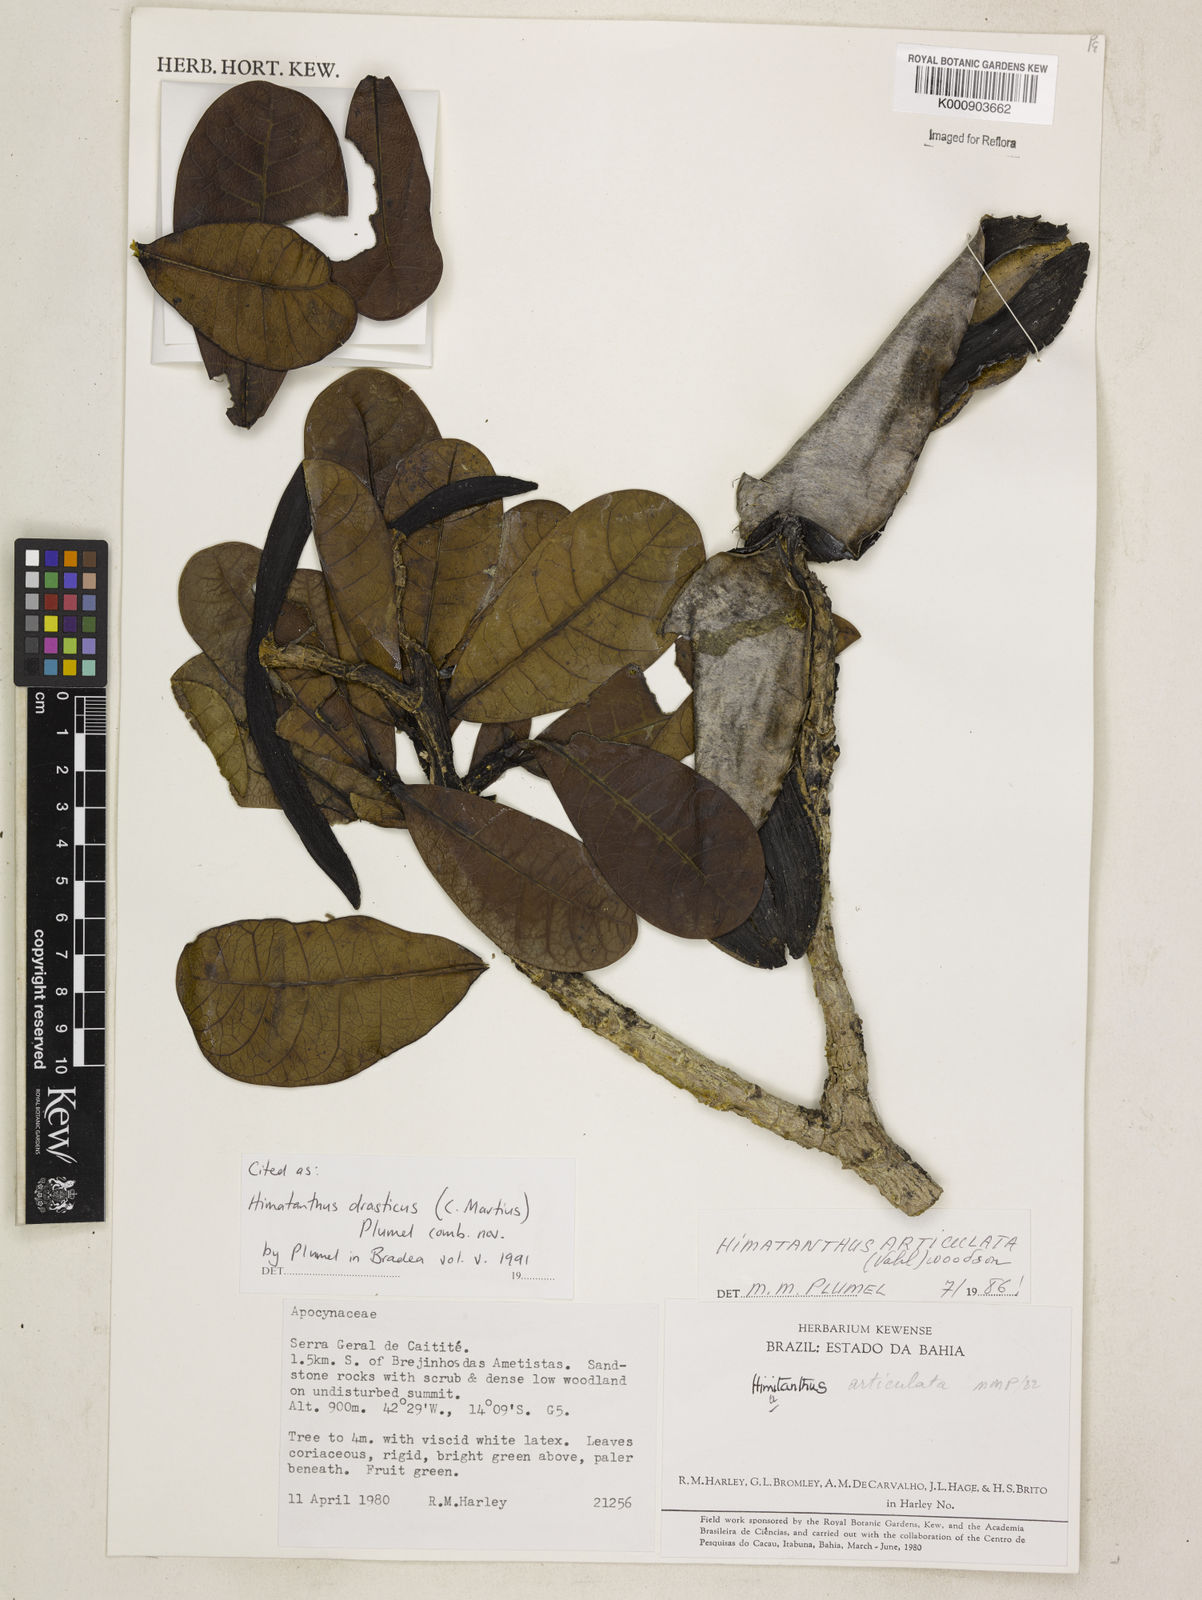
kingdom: Plantae
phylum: Tracheophyta
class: Magnoliopsida
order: Gentianales
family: Apocynaceae
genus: Himatanthus
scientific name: Himatanthus drasticus
